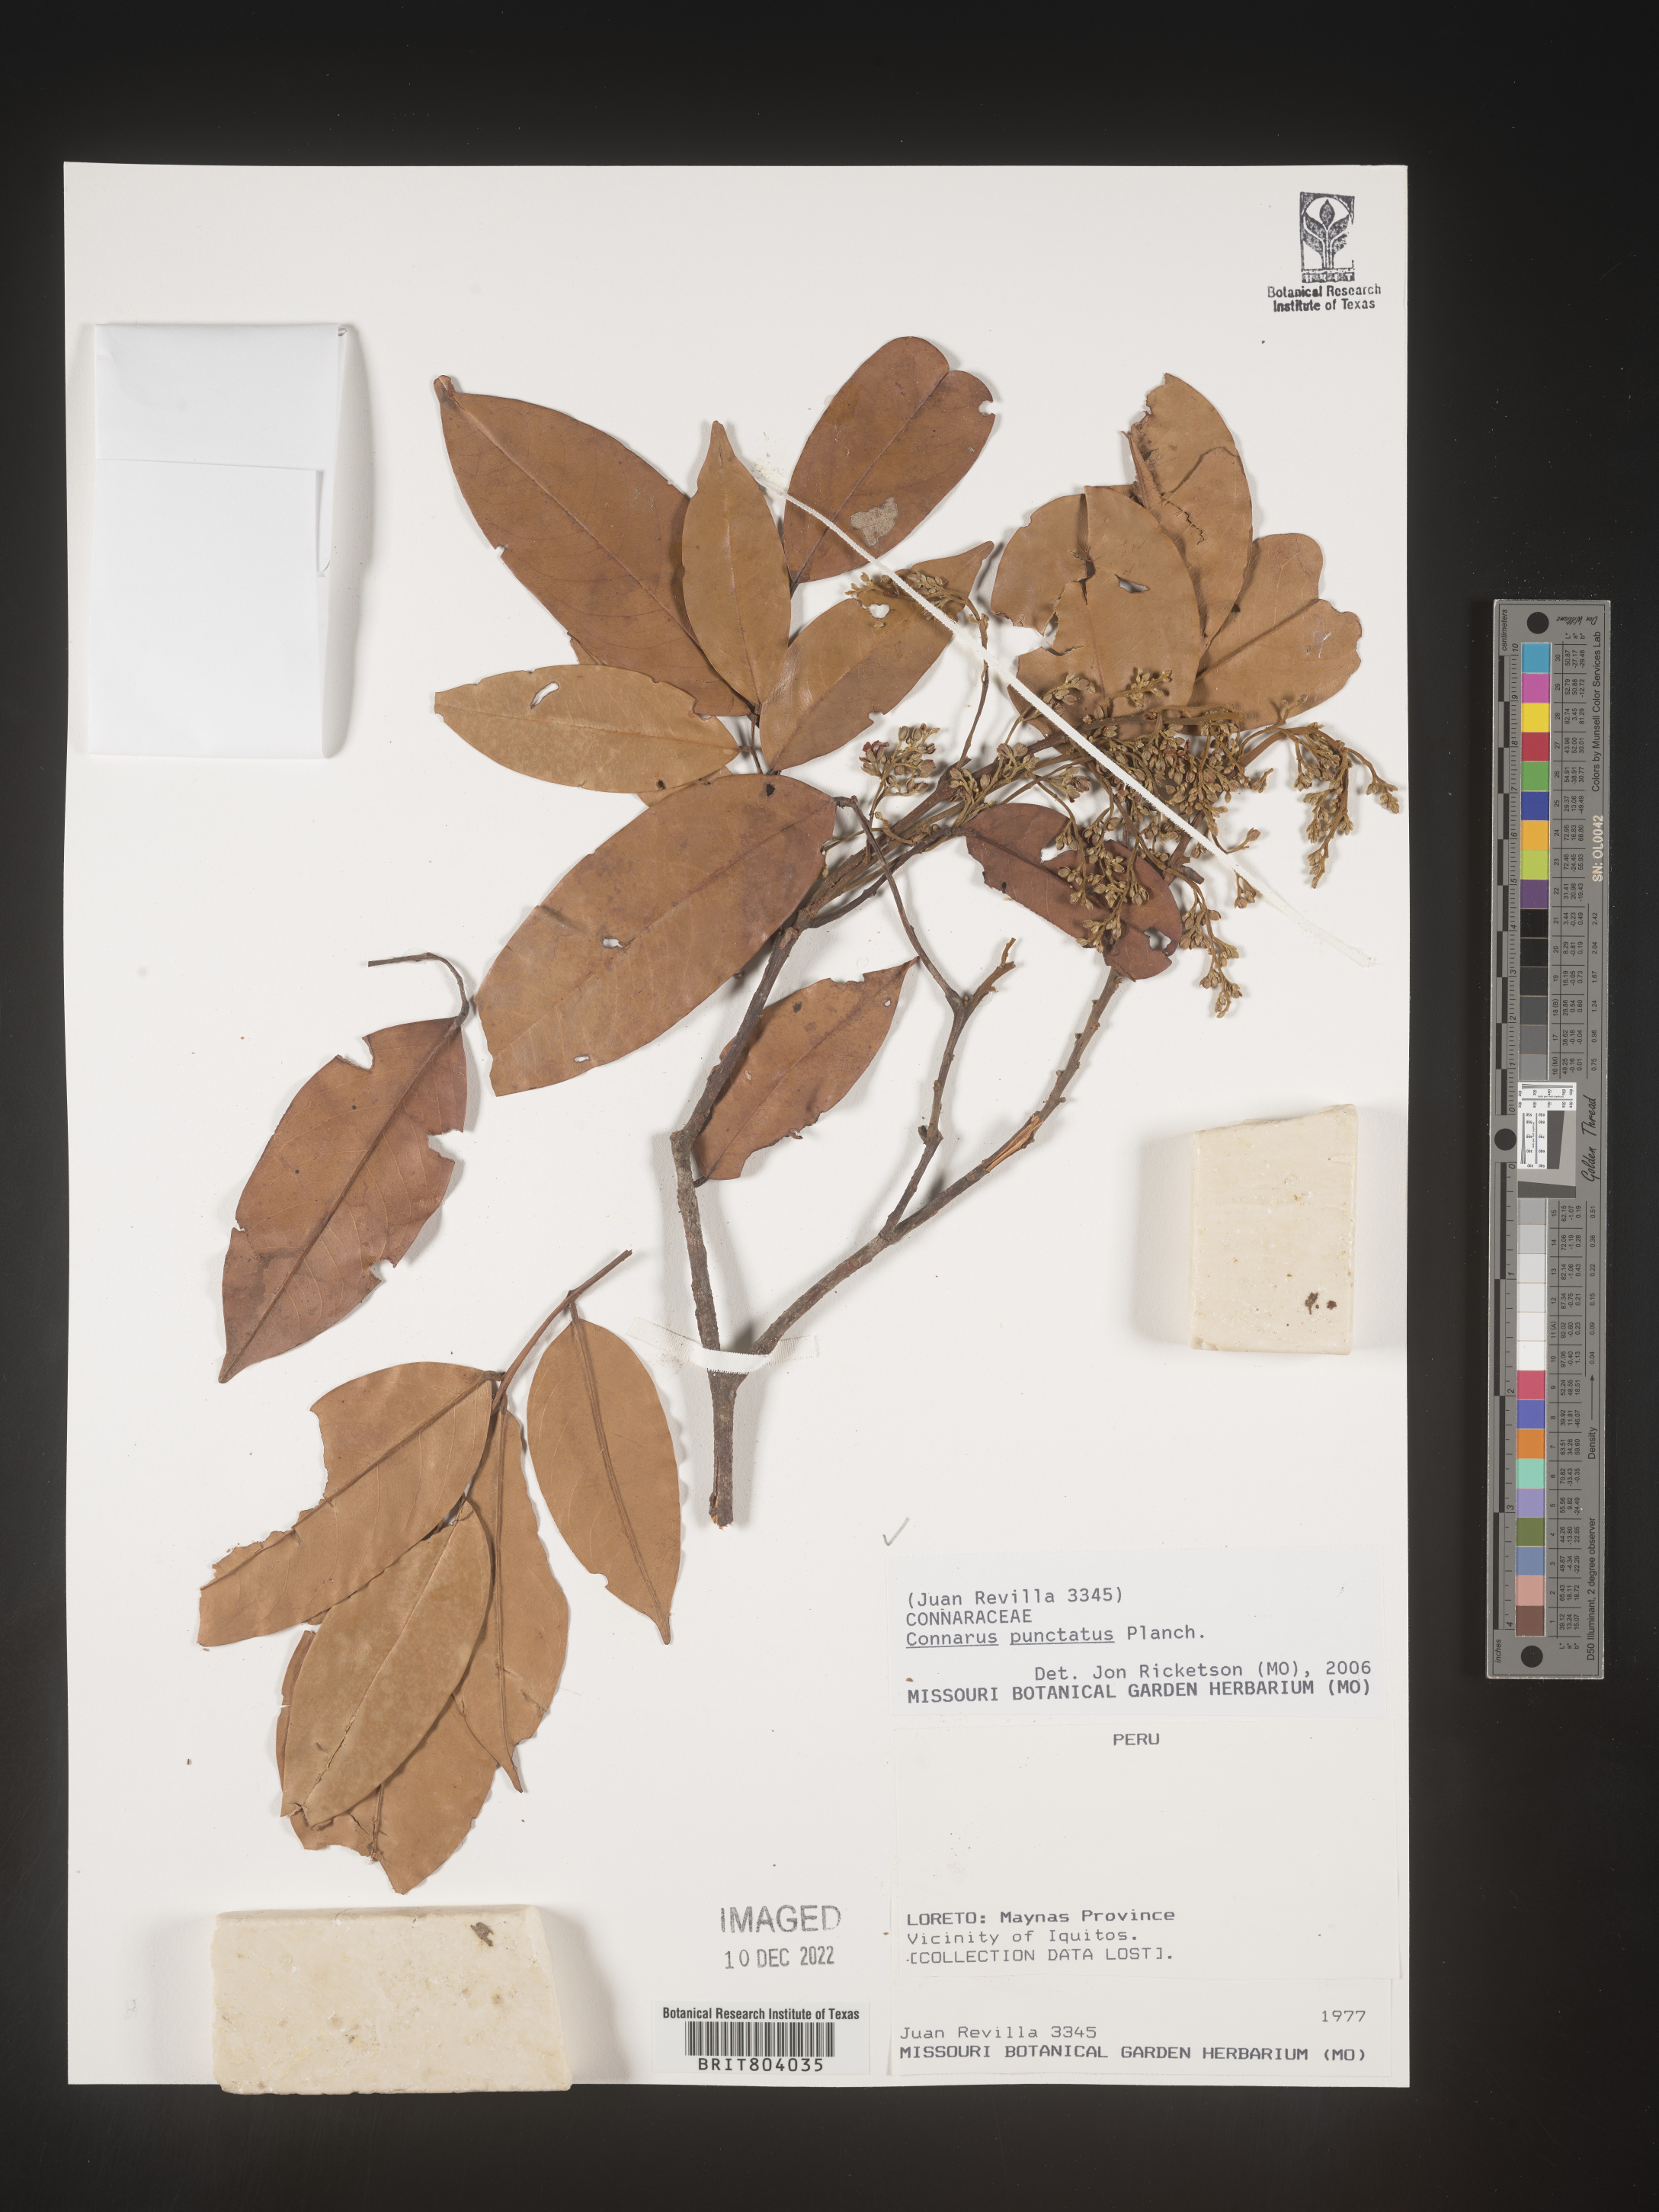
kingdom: Plantae
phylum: Tracheophyta
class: Magnoliopsida
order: Oxalidales
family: Connaraceae
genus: Connarus
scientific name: Connarus
